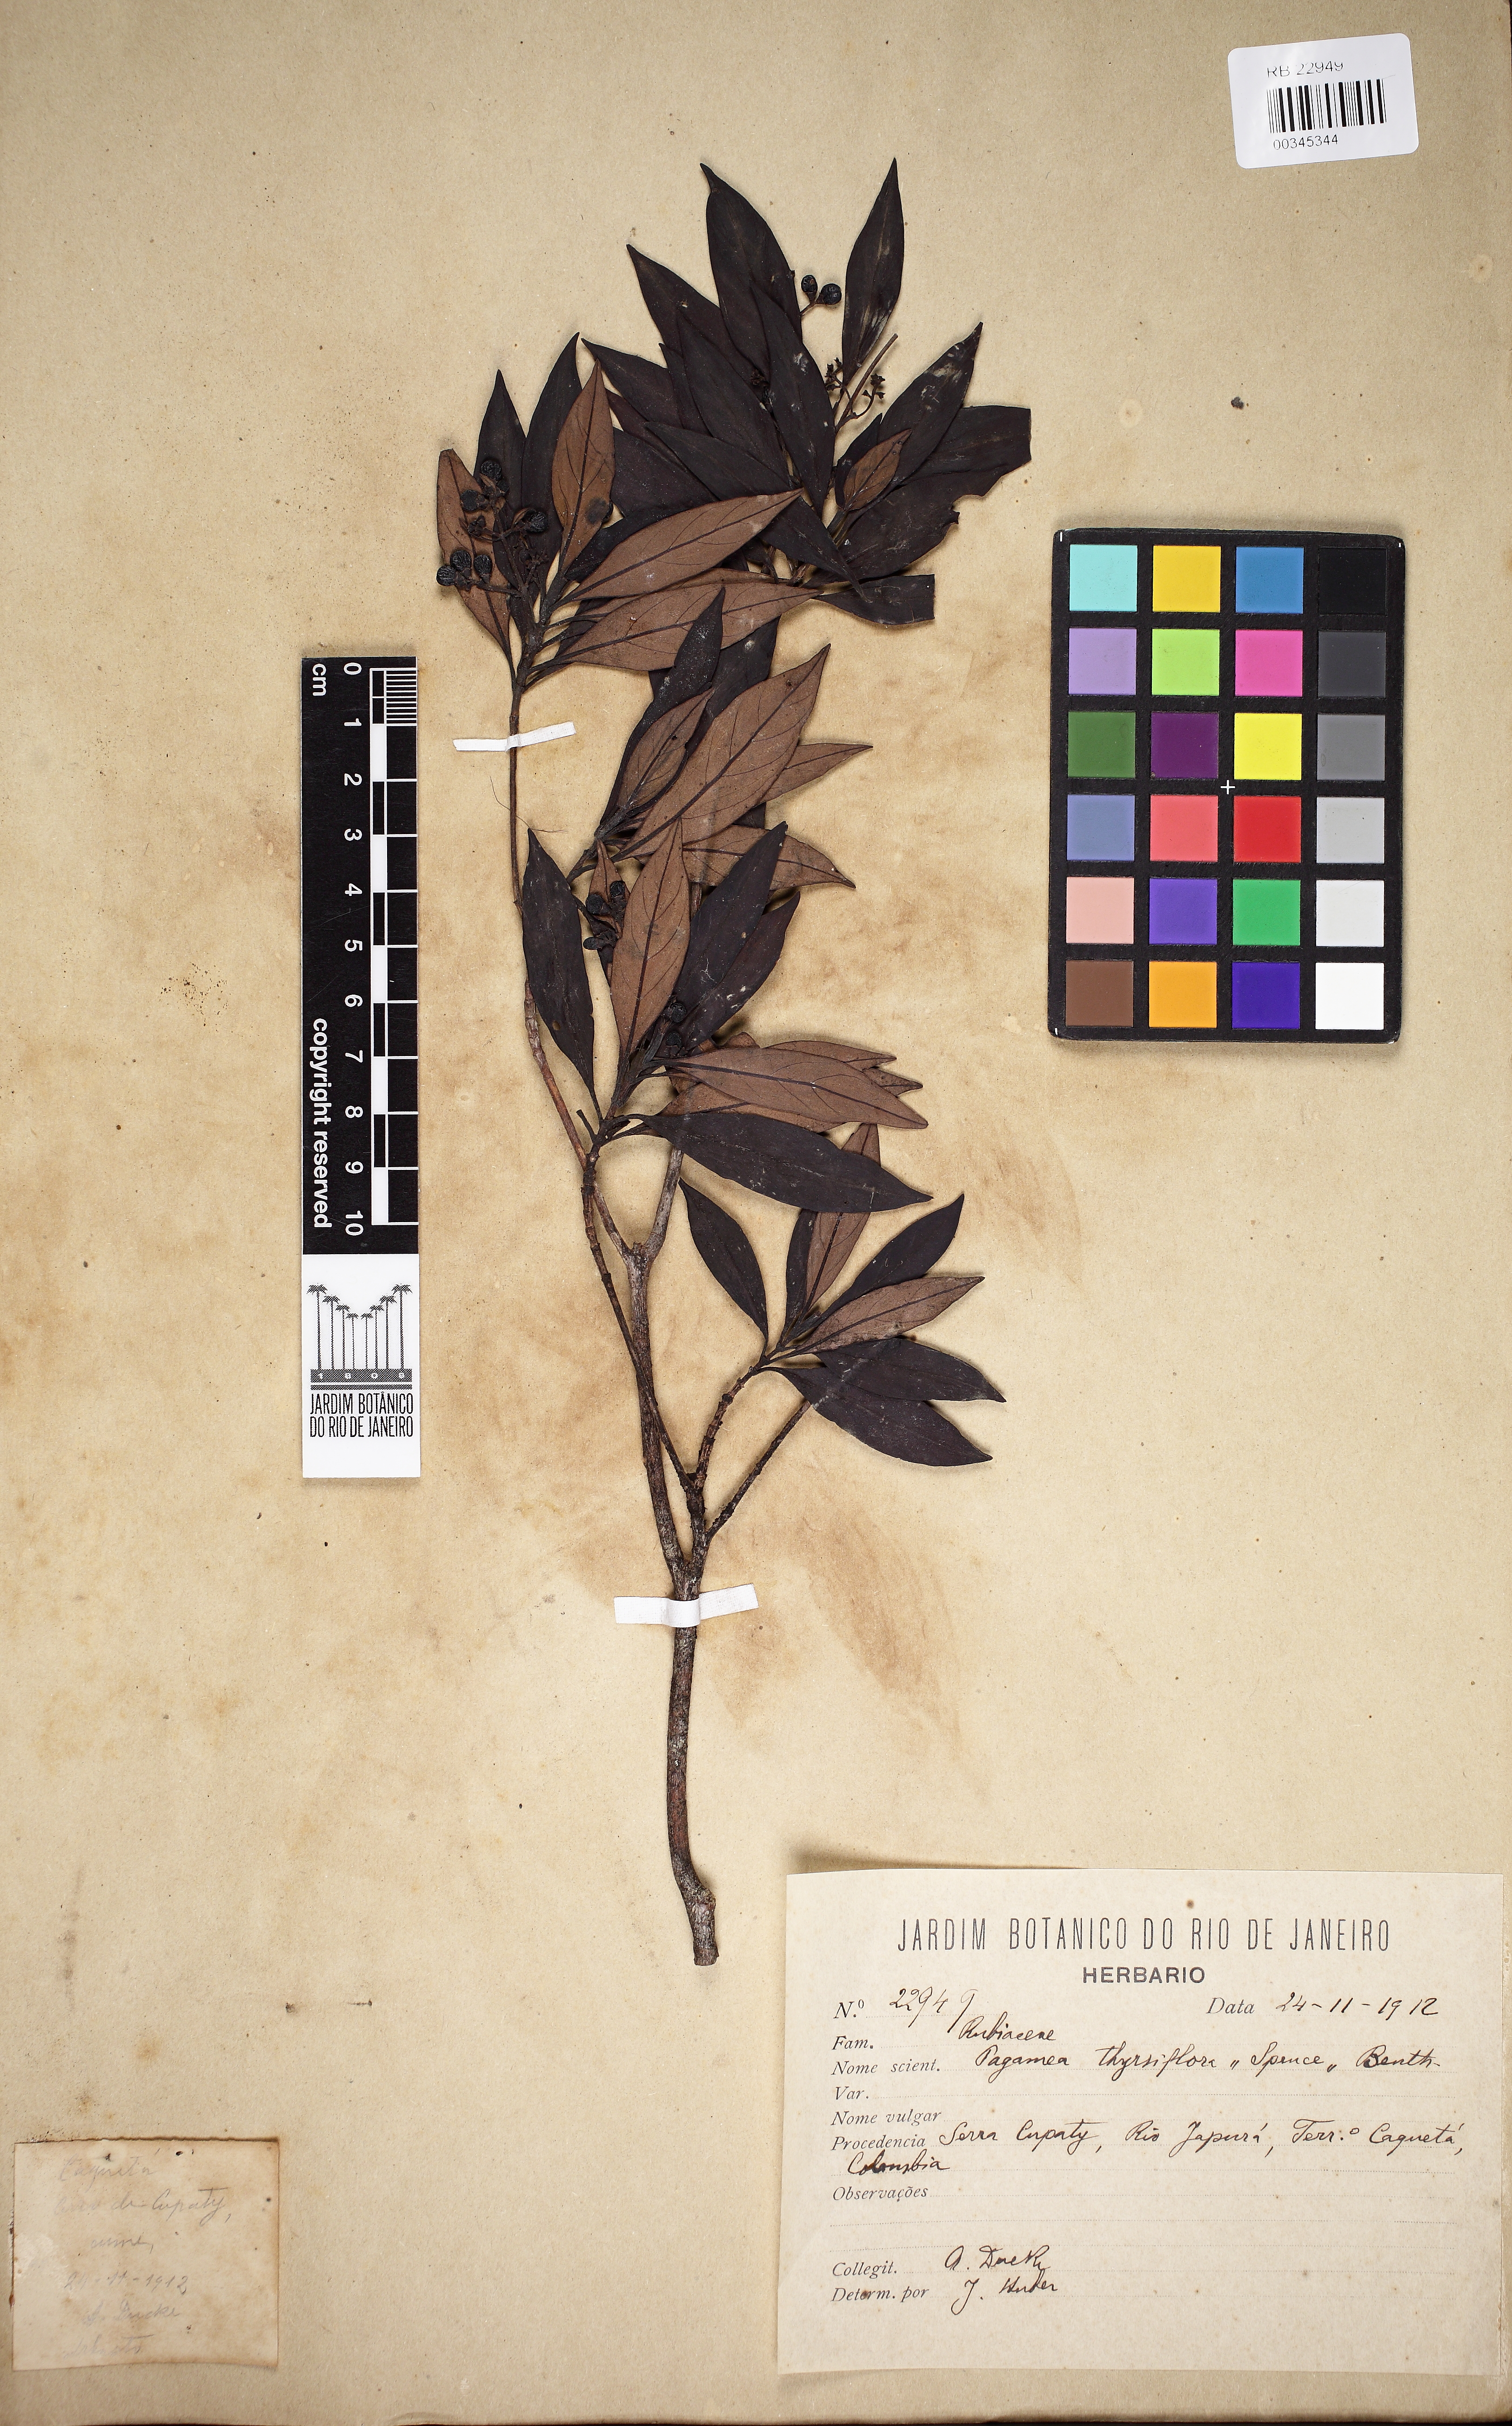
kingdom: Plantae
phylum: Tracheophyta
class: Magnoliopsida
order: Gentianales
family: Rubiaceae
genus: Pagamea
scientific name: Pagamea thyrsiflora
